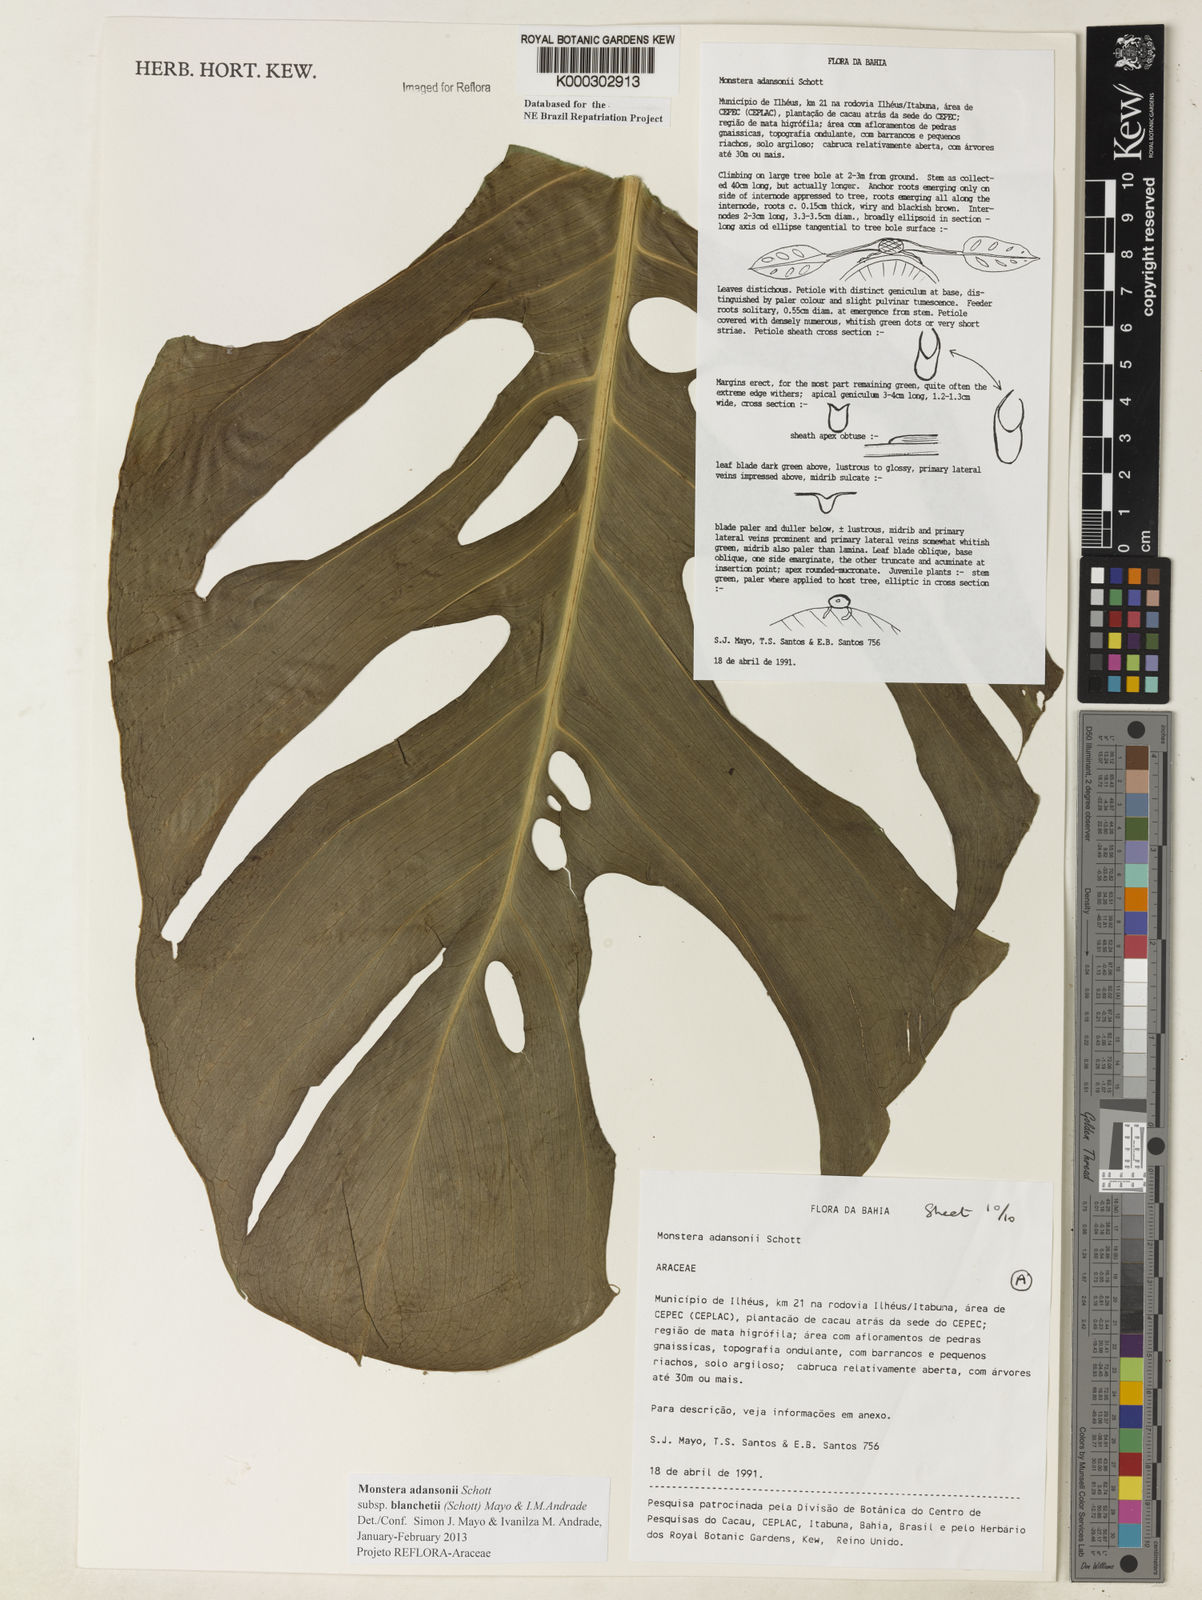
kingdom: Plantae
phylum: Tracheophyta
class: Liliopsida
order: Alismatales
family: Araceae
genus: Monstera
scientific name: Monstera adansonii
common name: Tarovine
